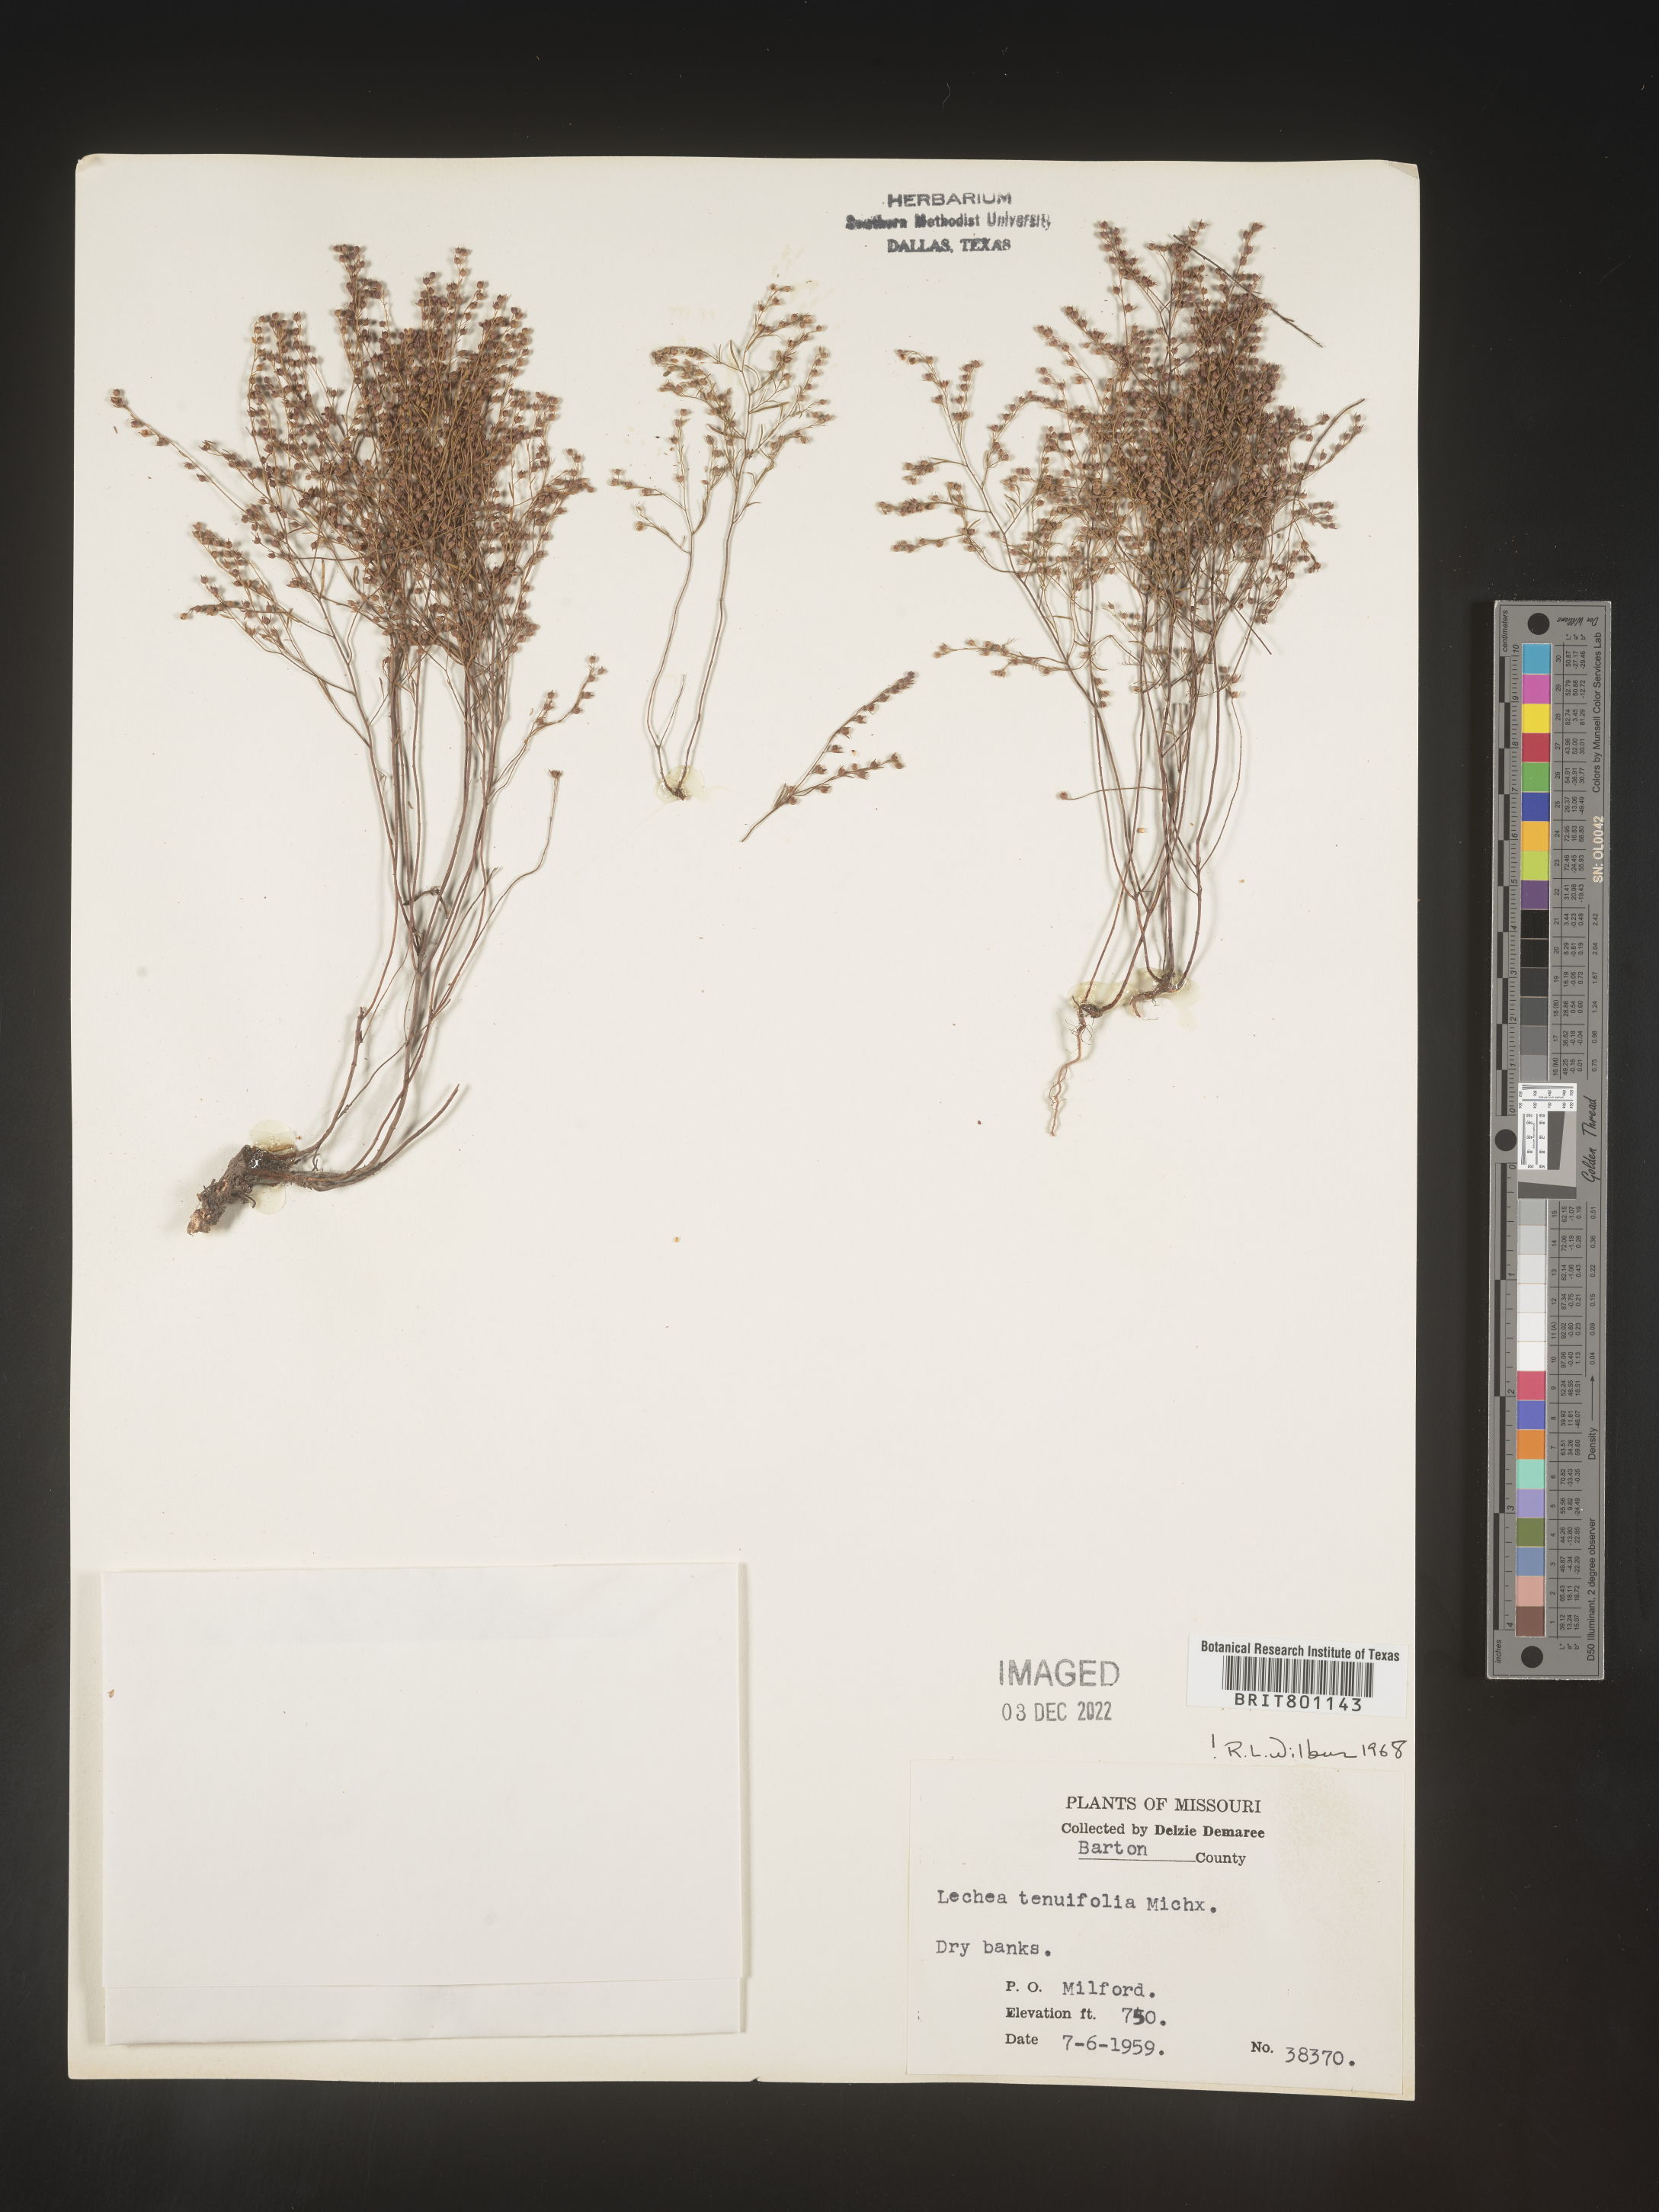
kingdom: Plantae
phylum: Tracheophyta
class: Magnoliopsida
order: Malvales
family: Cistaceae
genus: Lechea
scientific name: Lechea tenuifolia
